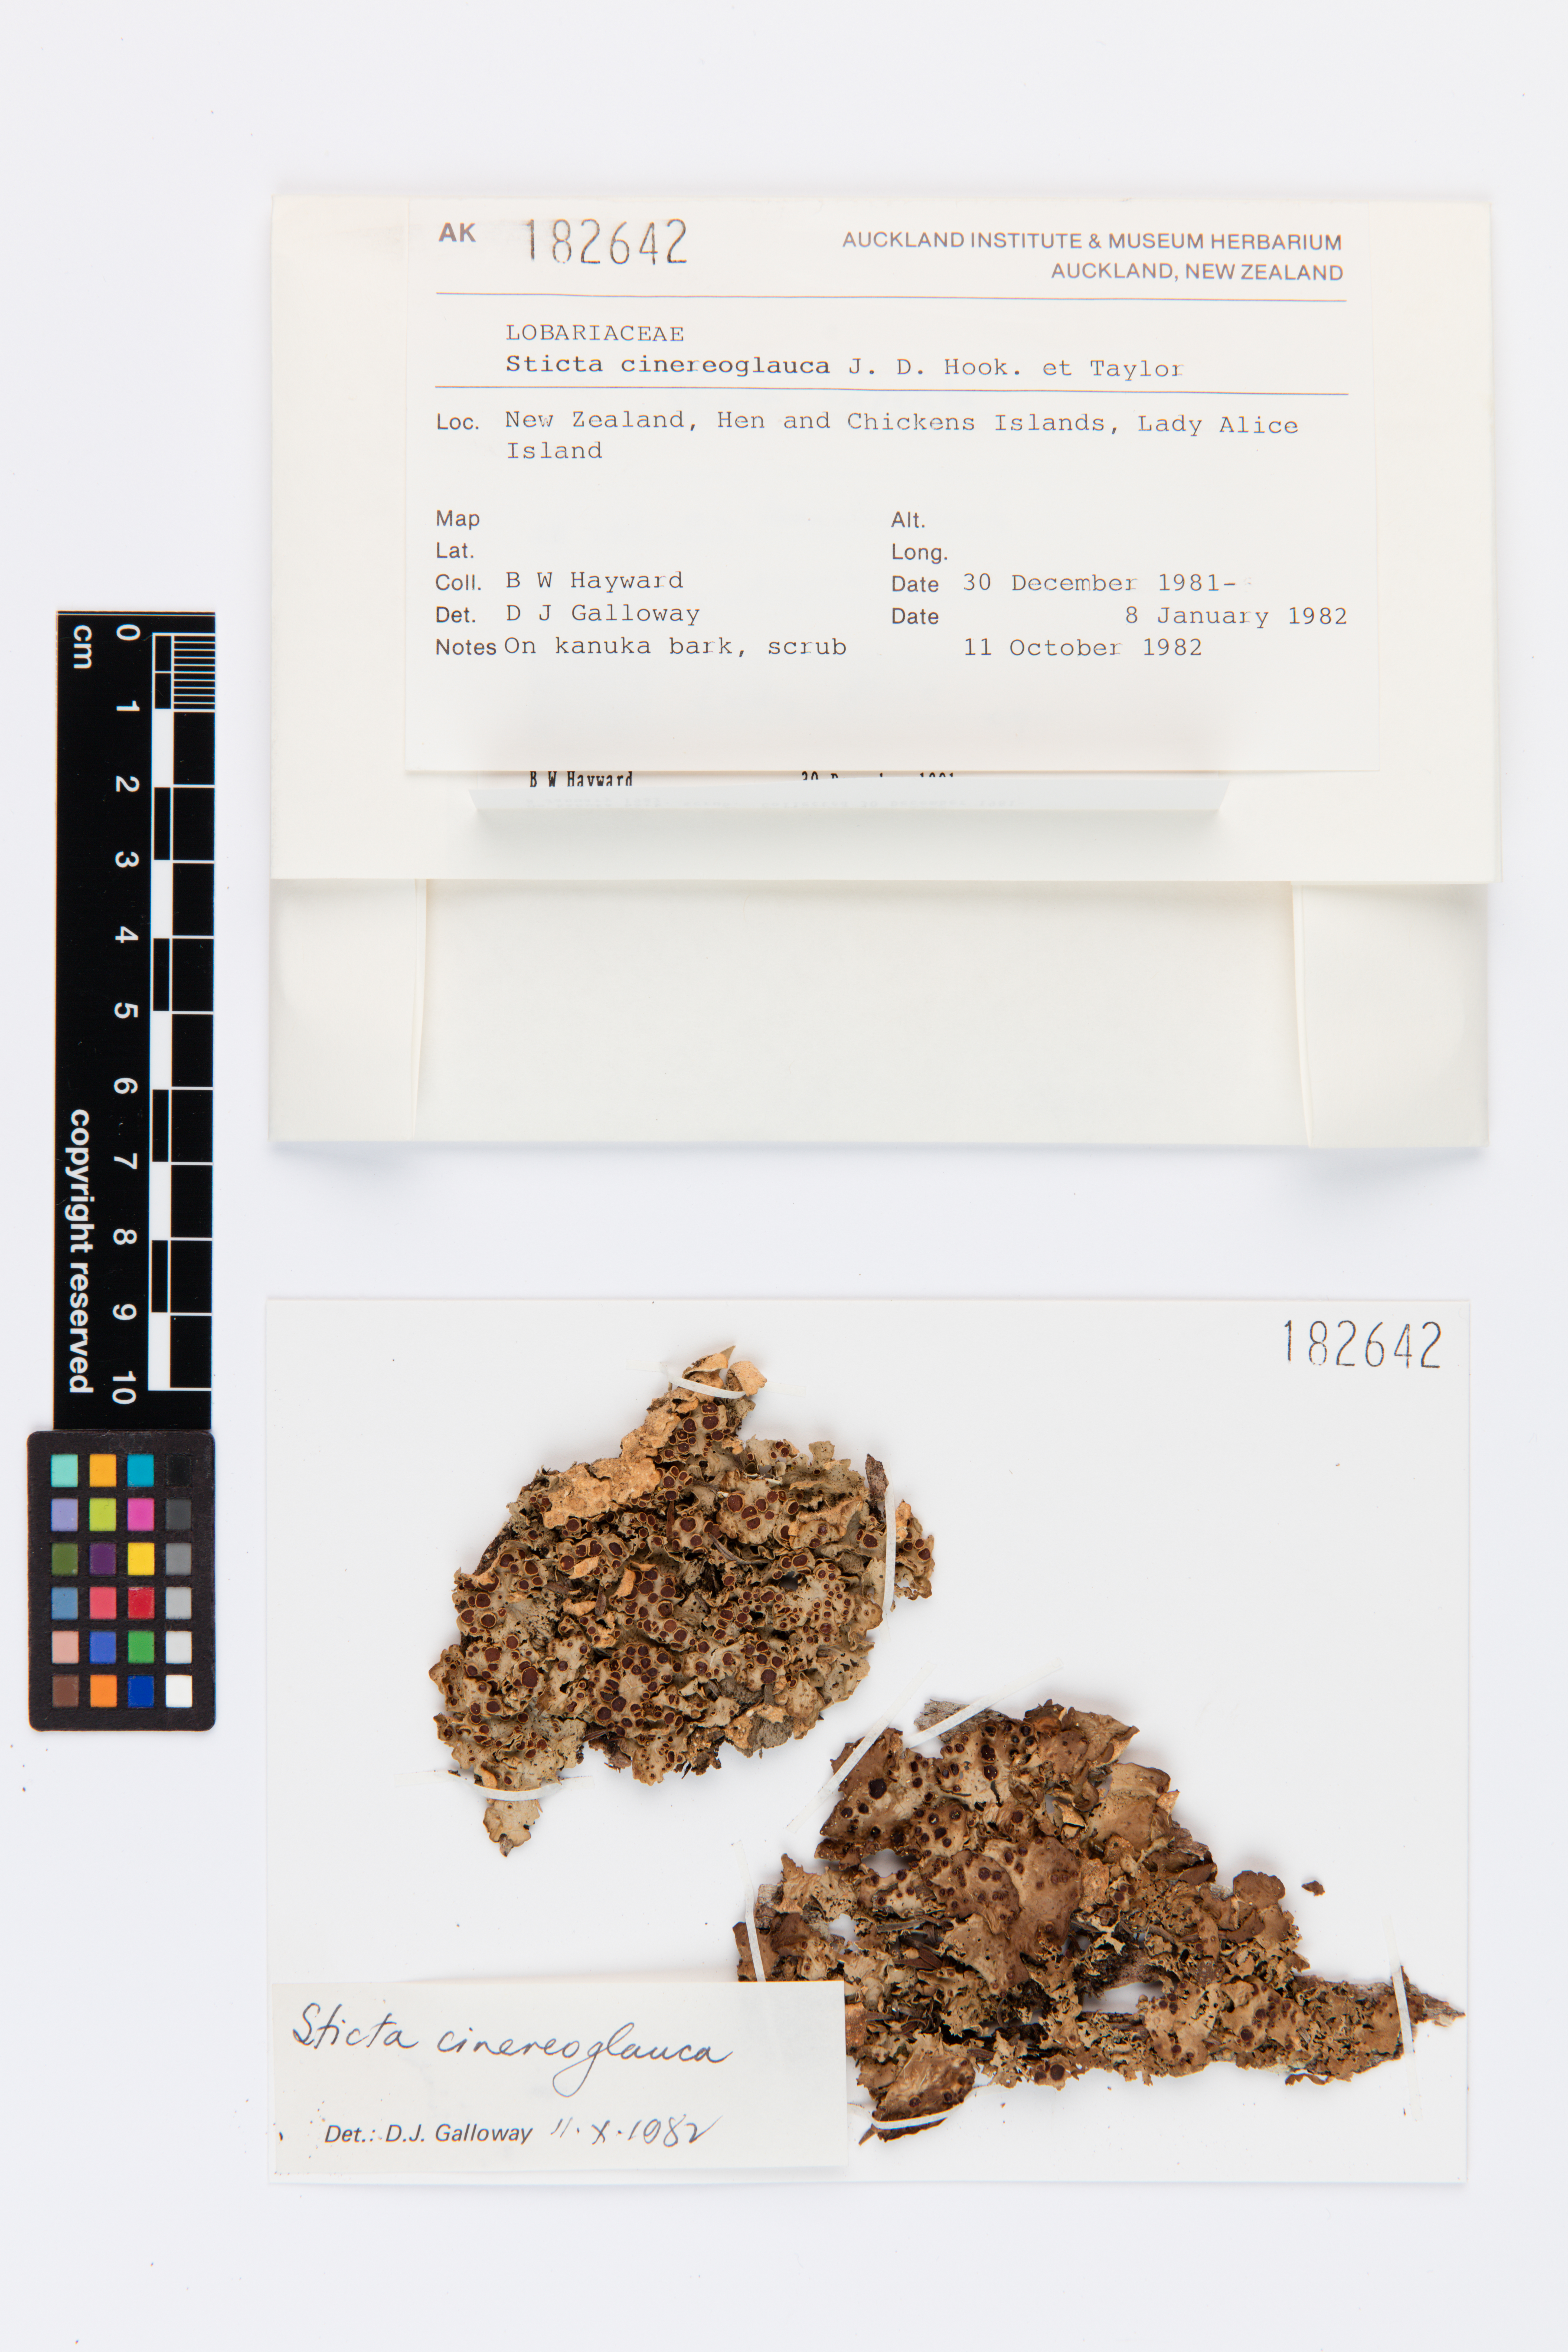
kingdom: Fungi
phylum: Ascomycota
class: Lecanoromycetes
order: Peltigerales
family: Lobariaceae
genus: Sticta
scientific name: Sticta cinereoglauca
